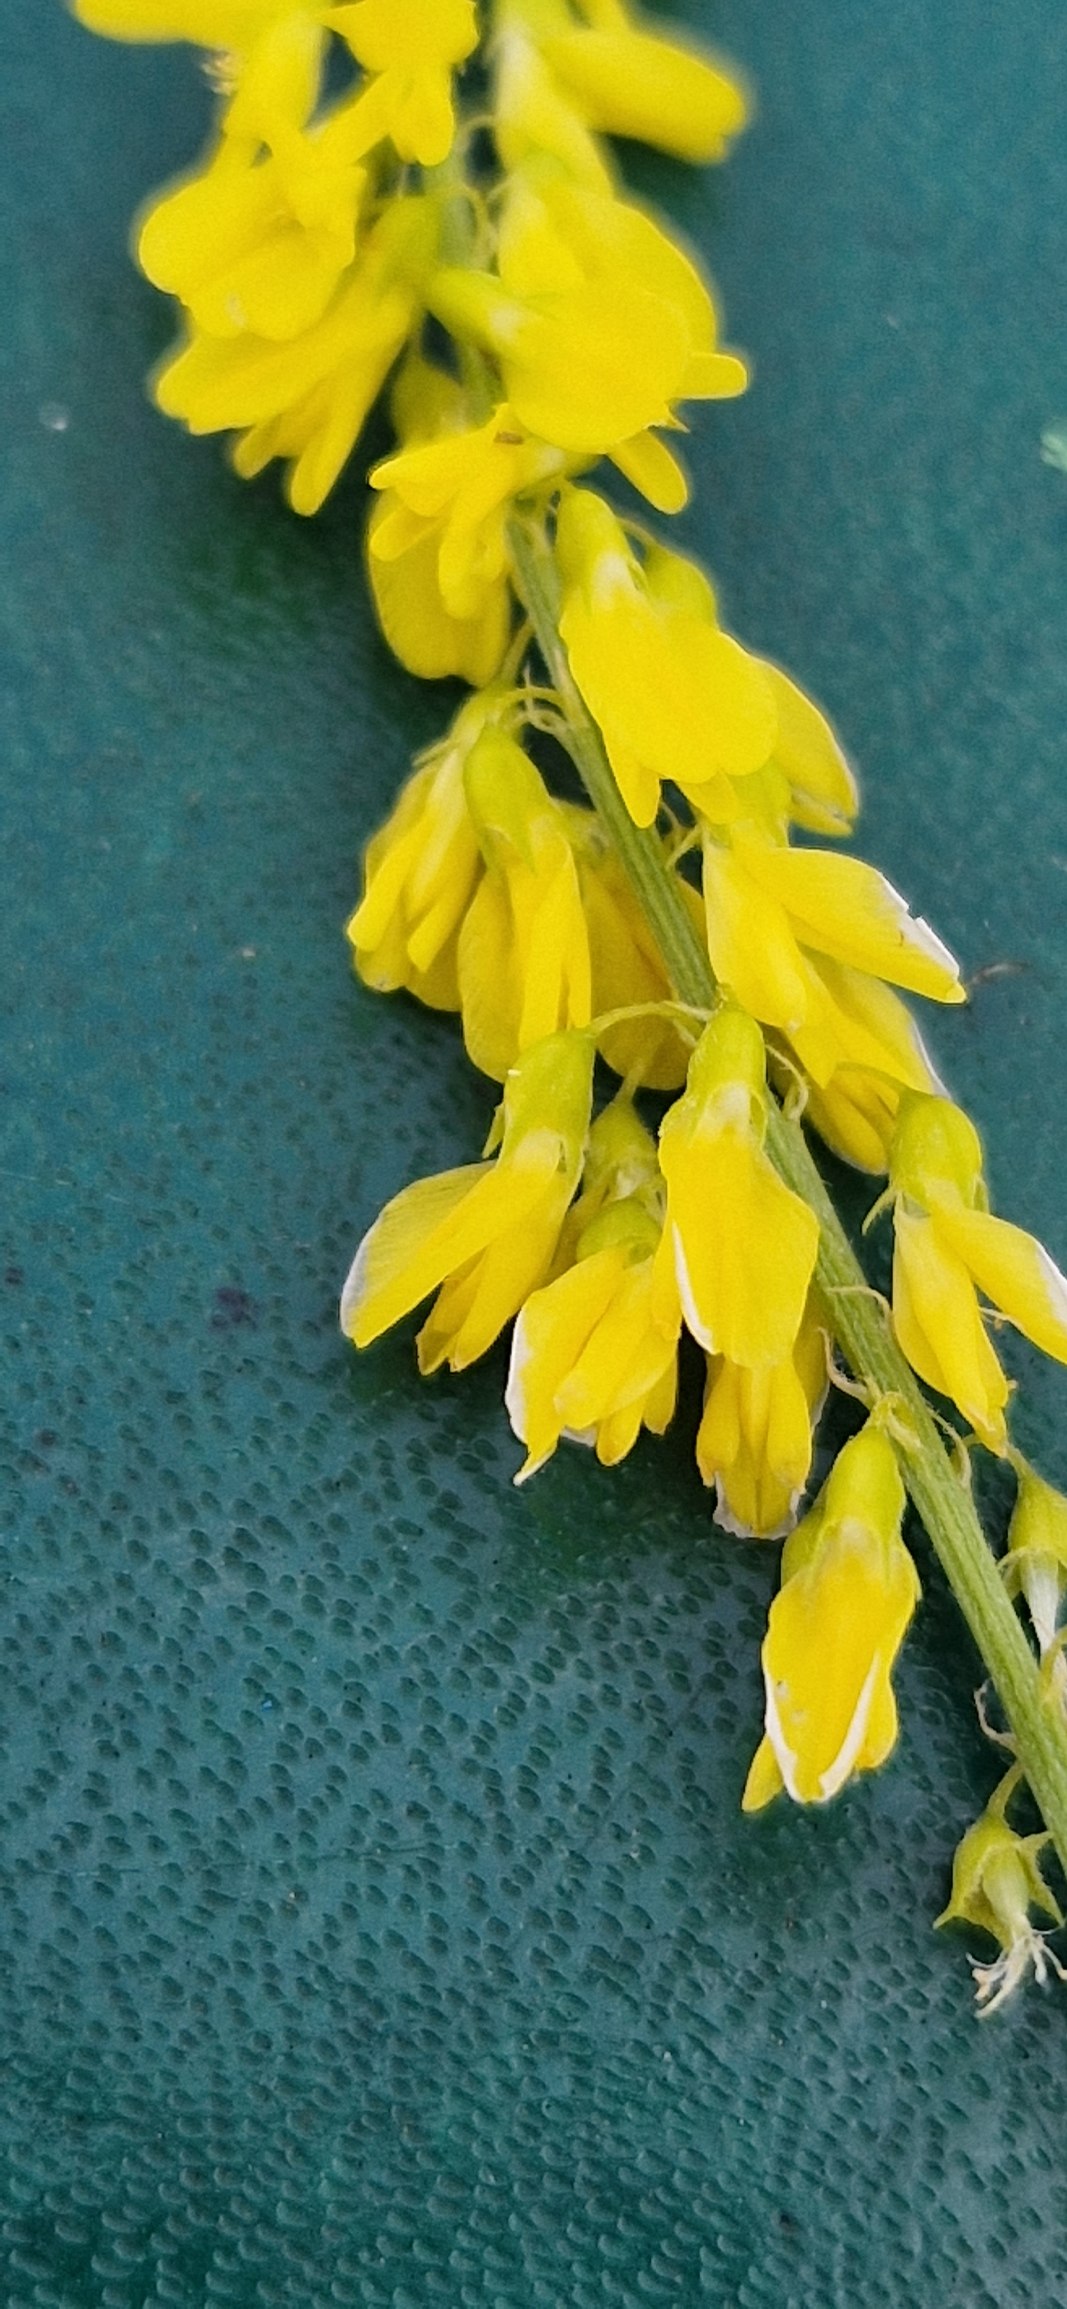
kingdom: Plantae
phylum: Tracheophyta
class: Magnoliopsida
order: Fabales
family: Fabaceae
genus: Melilotus
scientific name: Melilotus officinalis
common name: Mark-stenkløver
